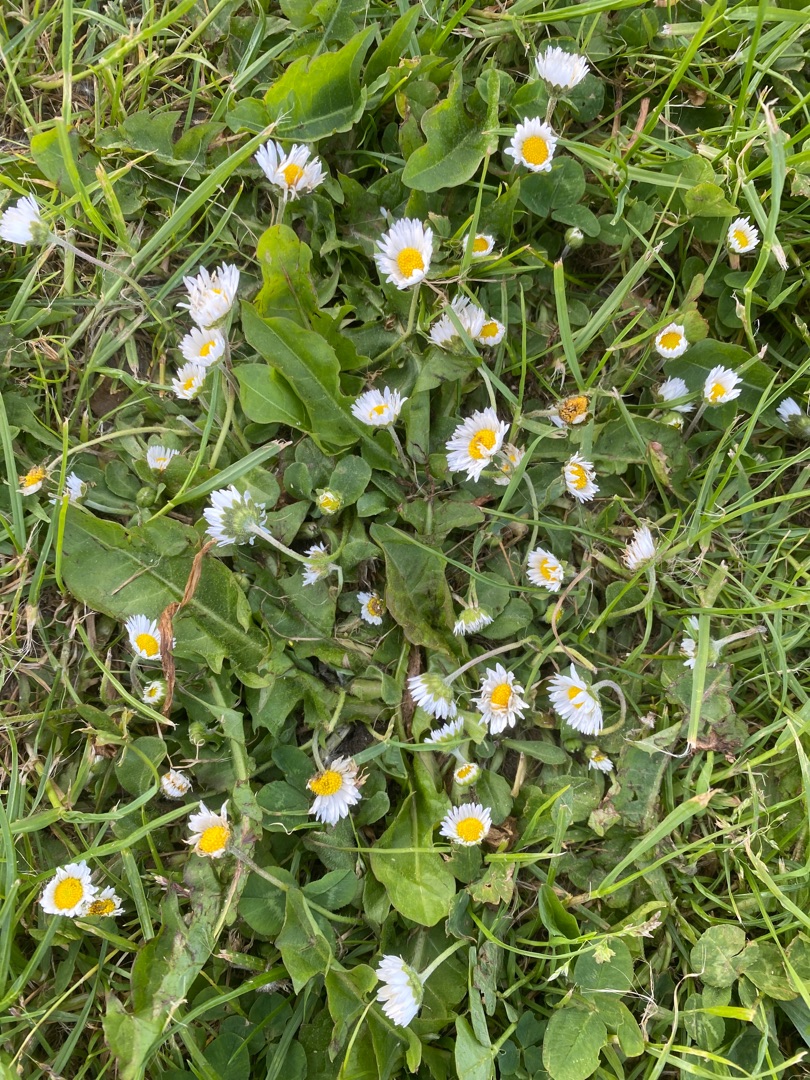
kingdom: Plantae
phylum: Tracheophyta
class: Magnoliopsida
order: Asterales
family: Asteraceae
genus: Bellis
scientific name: Bellis perennis
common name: Tusindfryd
